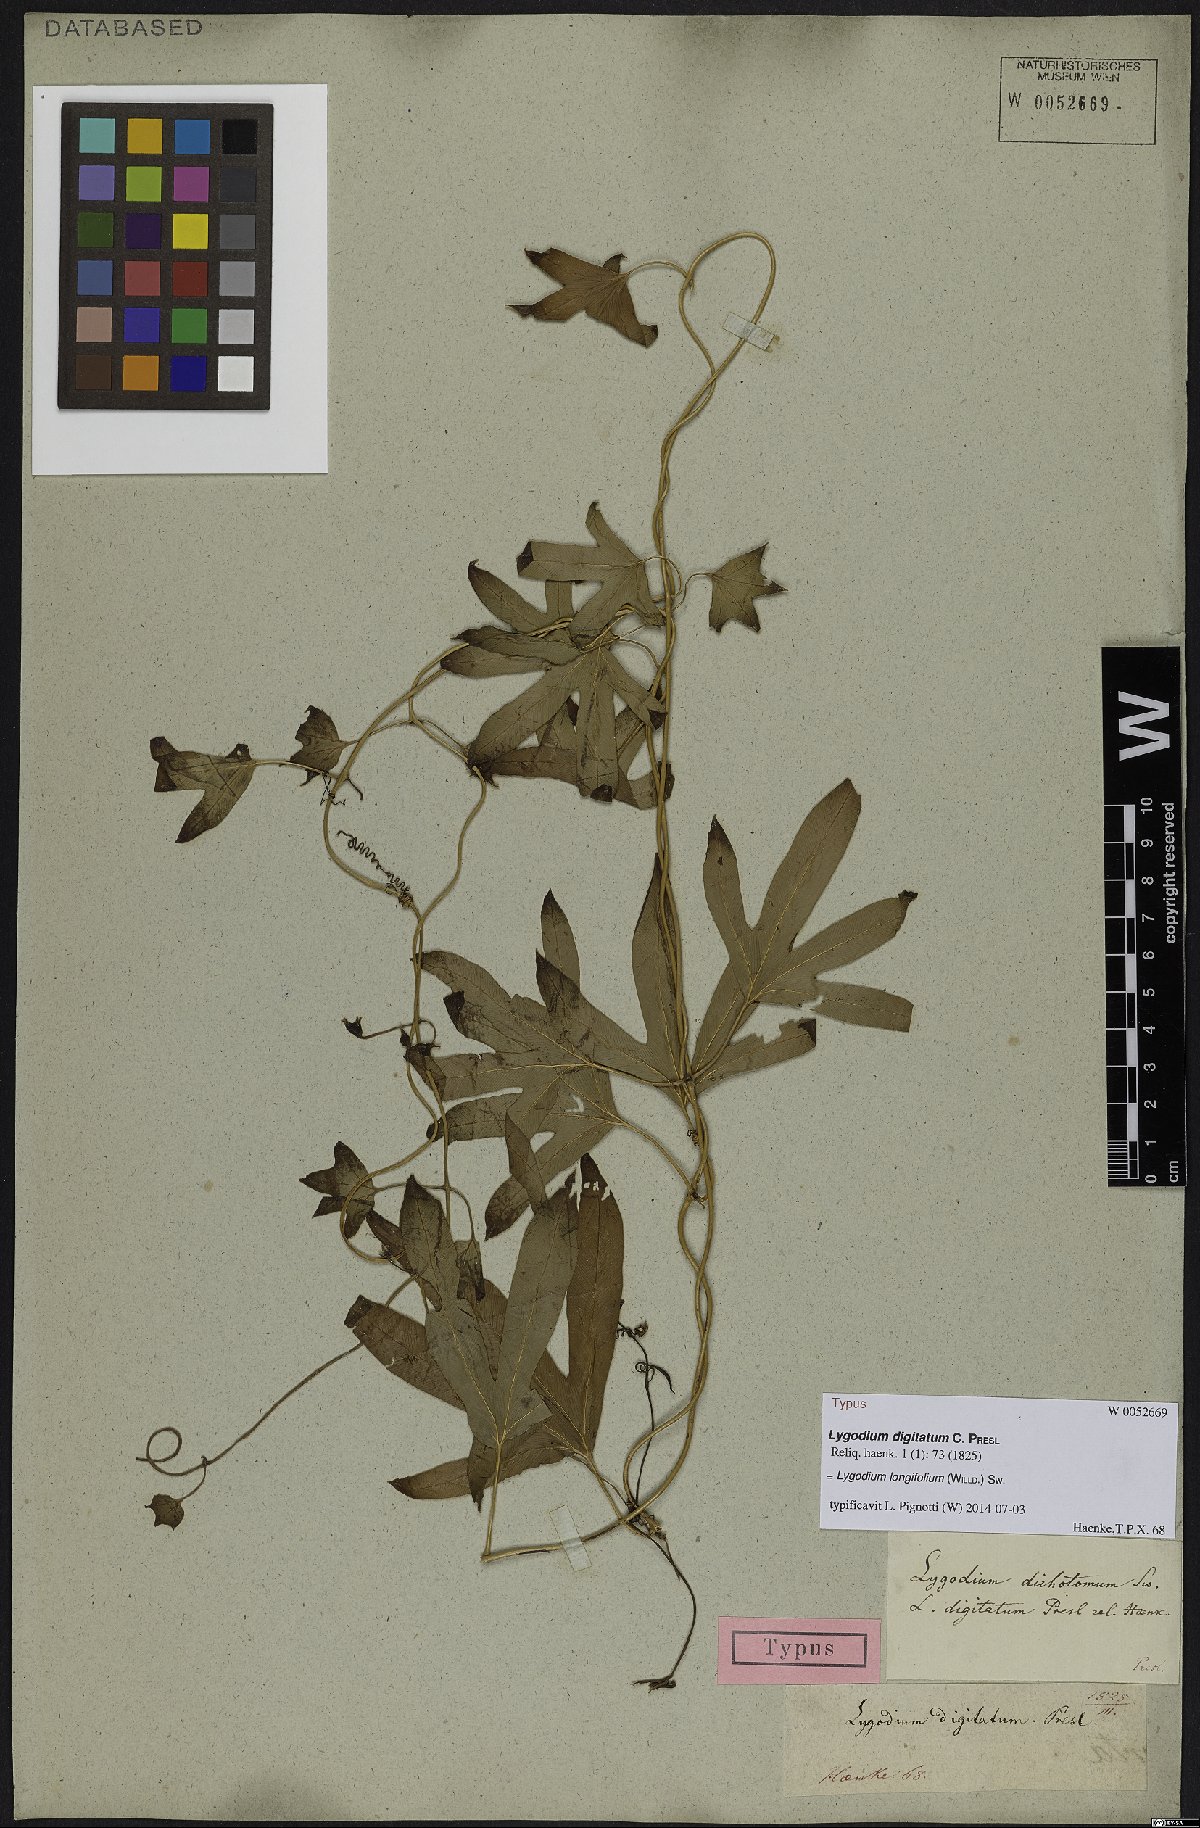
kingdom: Plantae
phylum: Tracheophyta
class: Polypodiopsida
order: Schizaeales
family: Lygodiaceae
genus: Lygodium
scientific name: Lygodium longifolium
